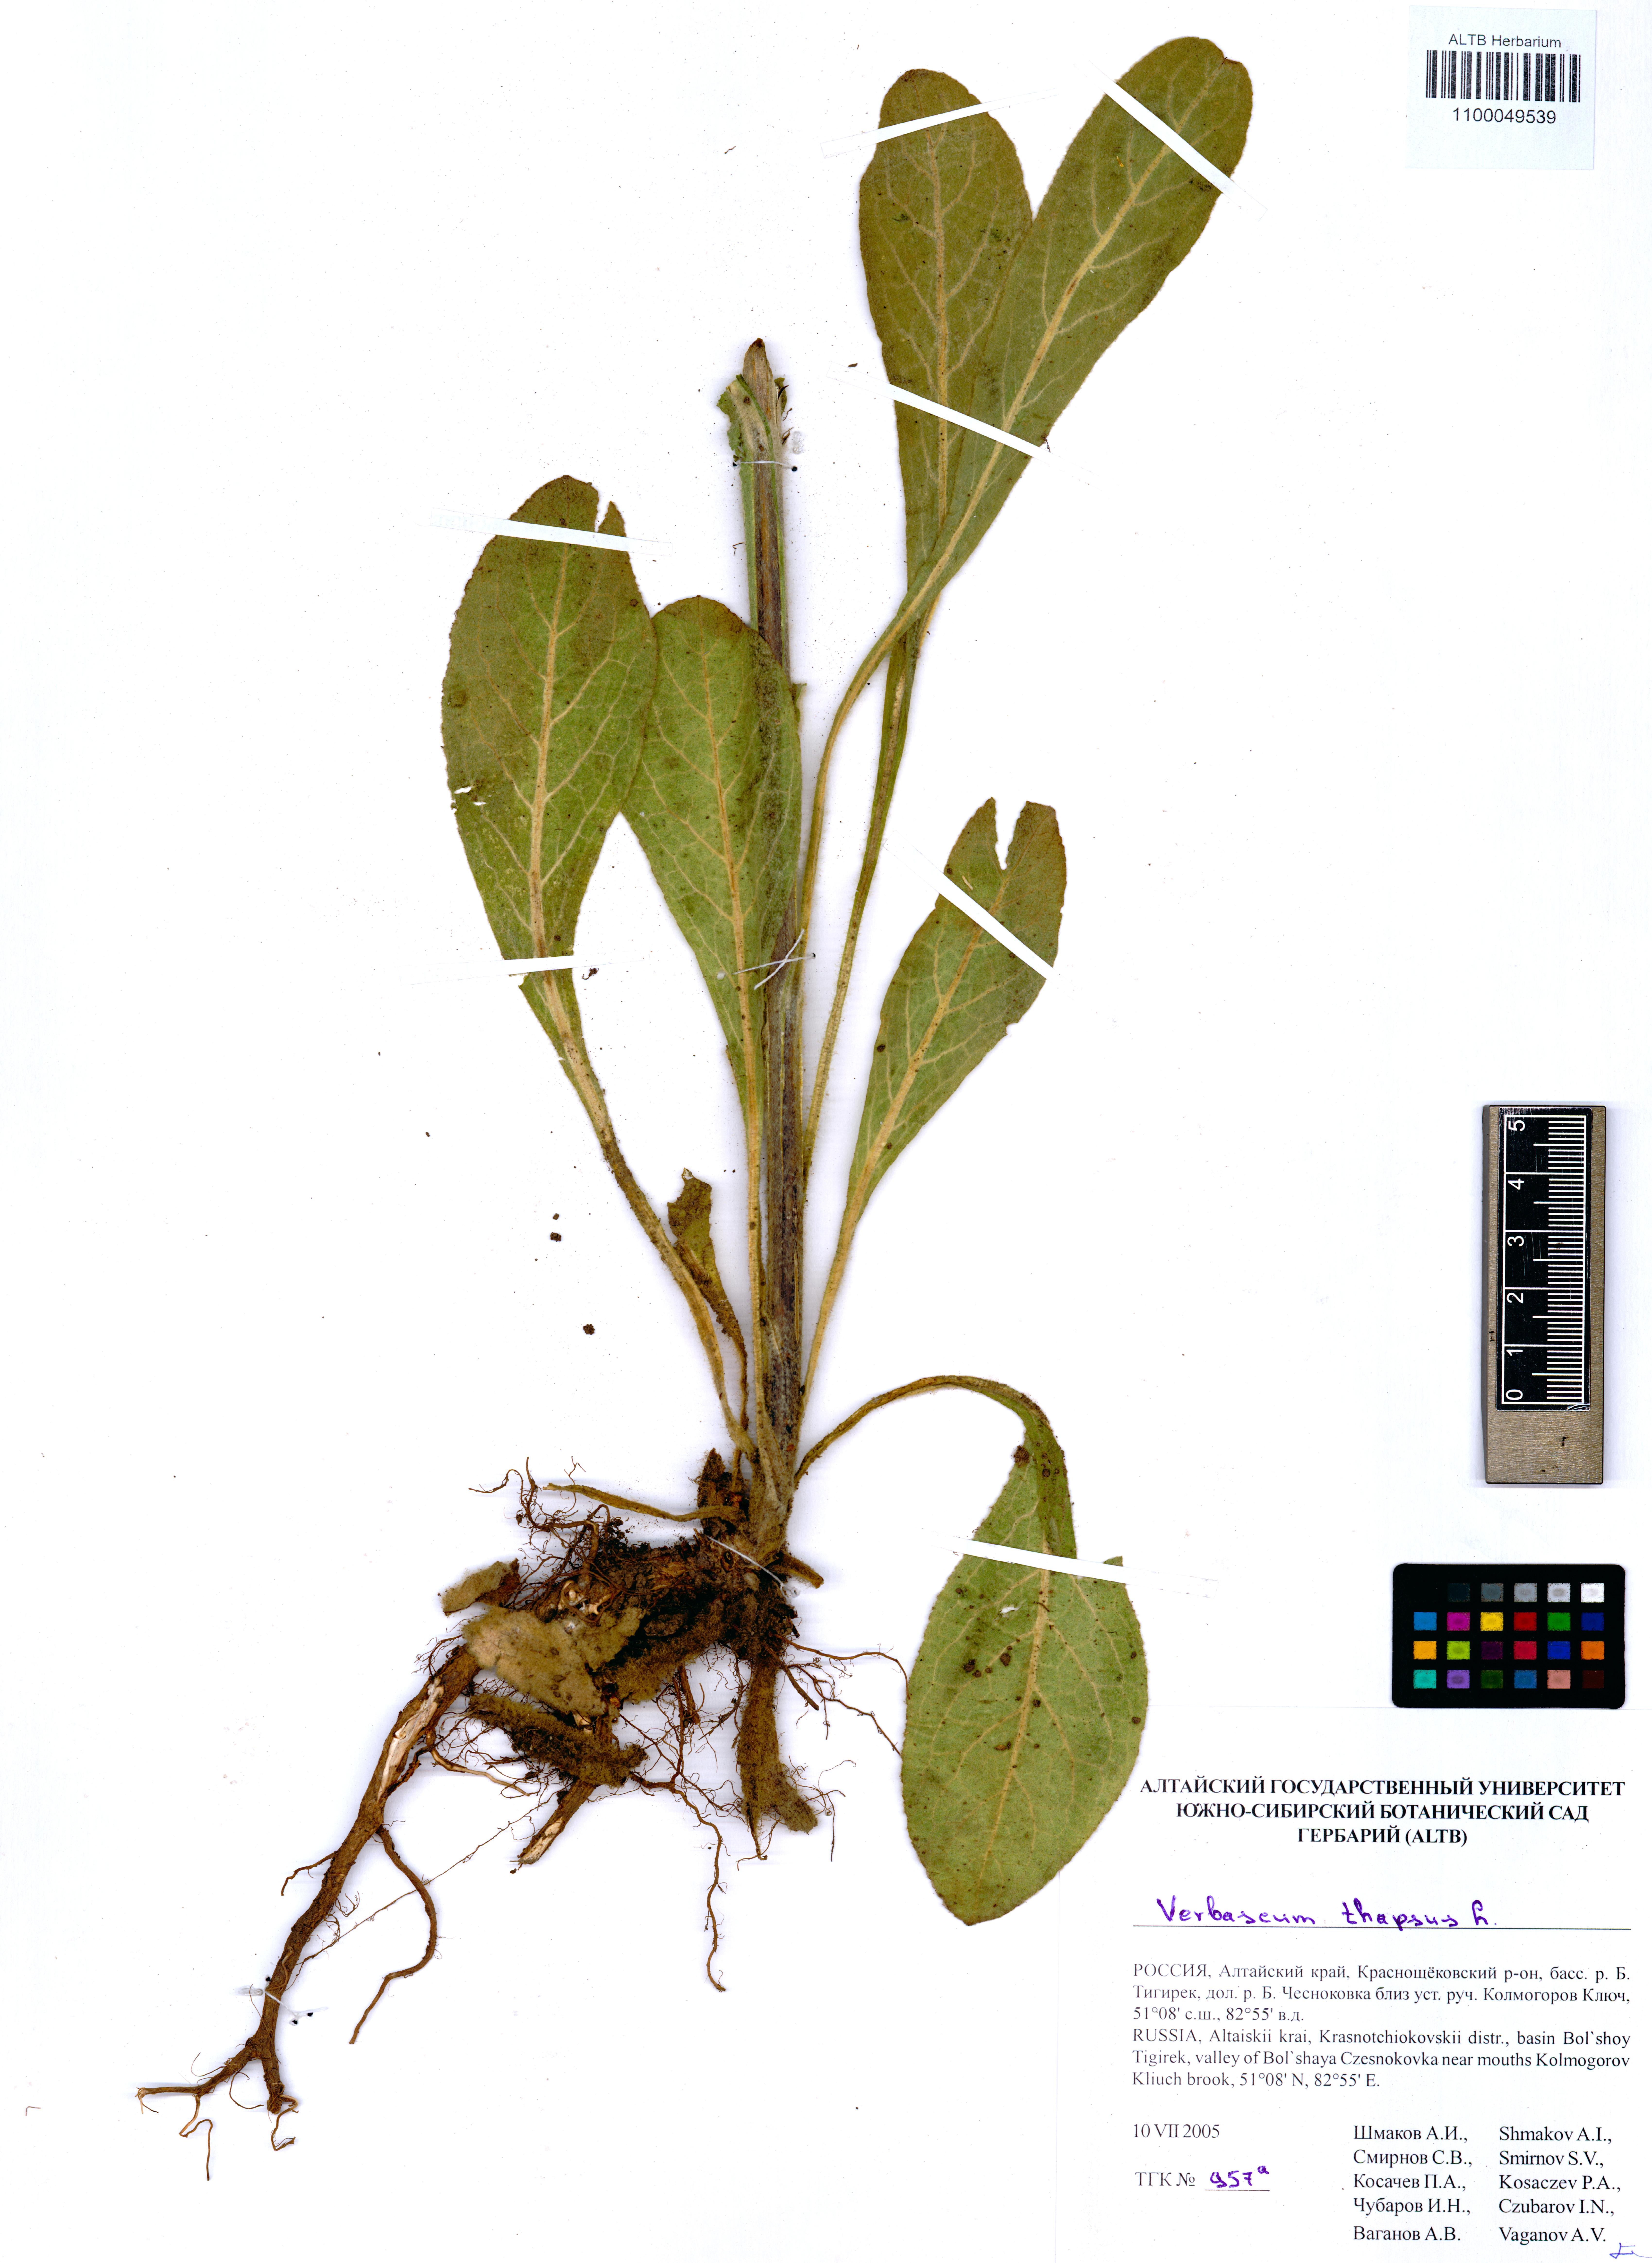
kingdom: Plantae
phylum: Tracheophyta
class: Magnoliopsida
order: Lamiales
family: Scrophulariaceae
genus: Verbascum
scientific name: Verbascum thapsus
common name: Common mullein
